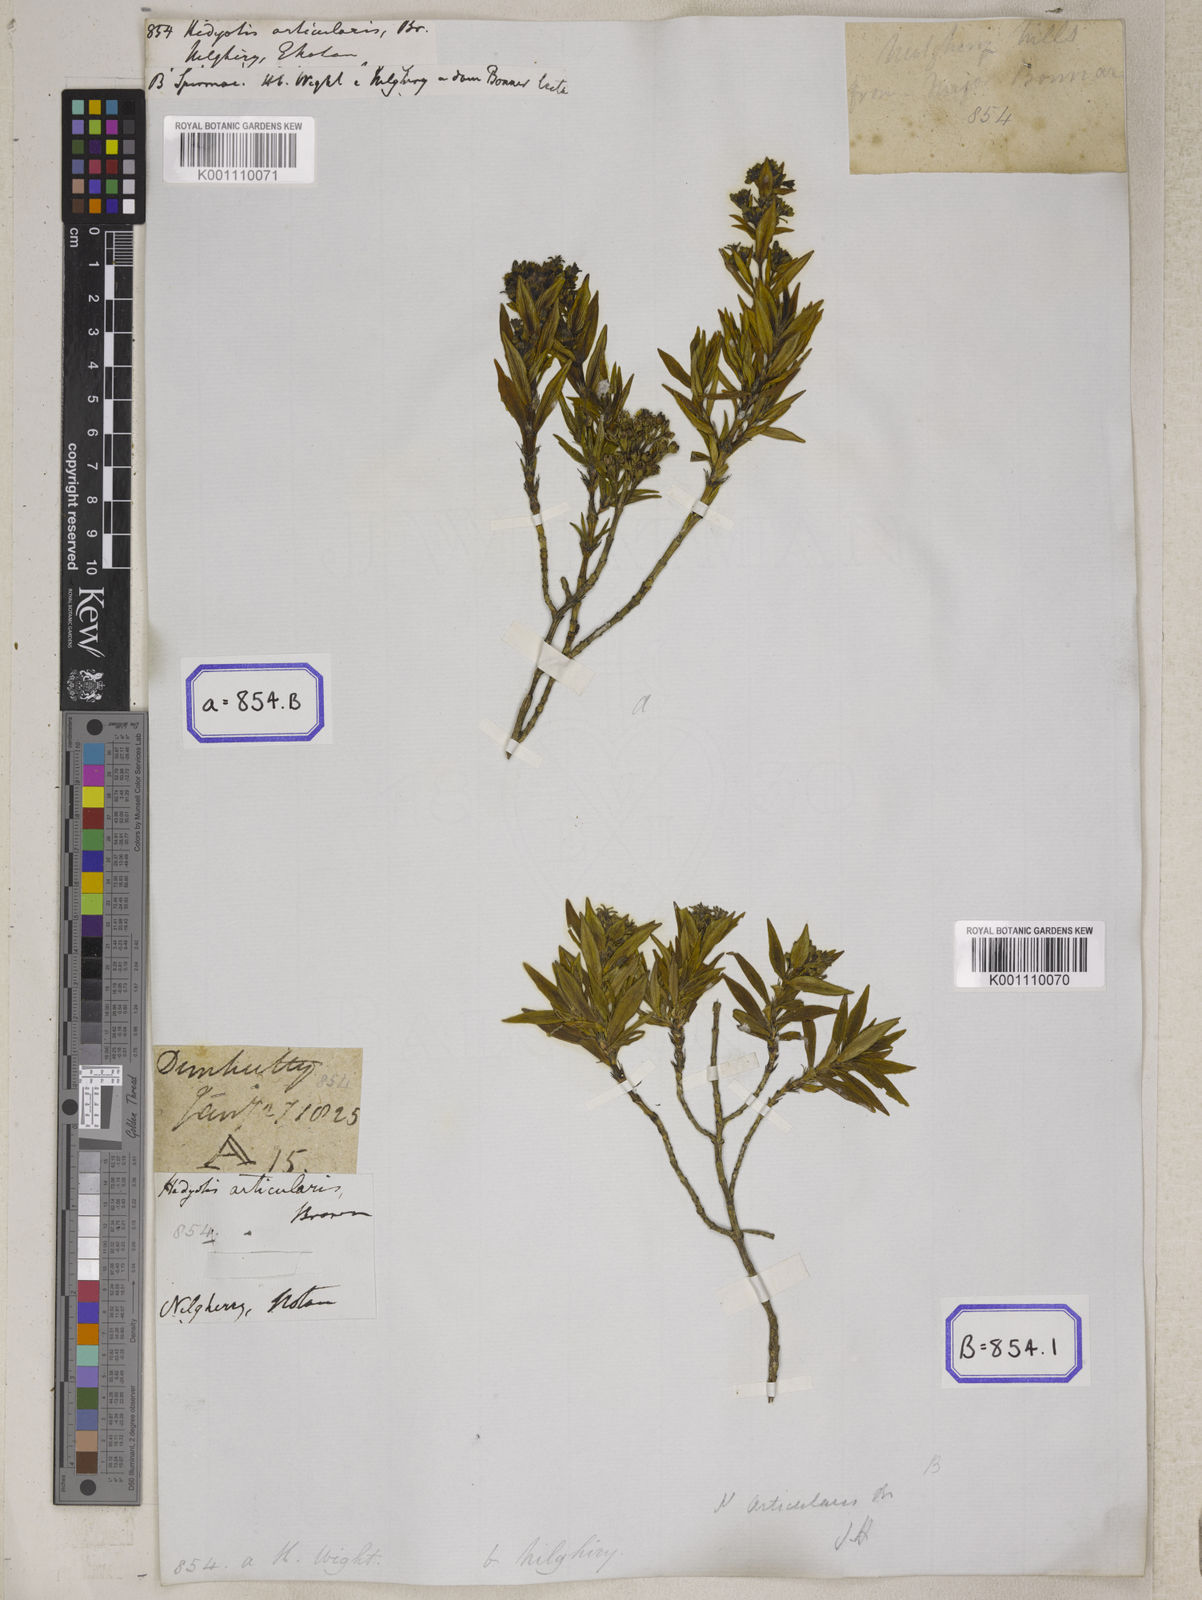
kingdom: Plantae
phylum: Tracheophyta
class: Magnoliopsida
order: Gentianales
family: Rubiaceae
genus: Hedyotis
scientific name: Hedyotis
